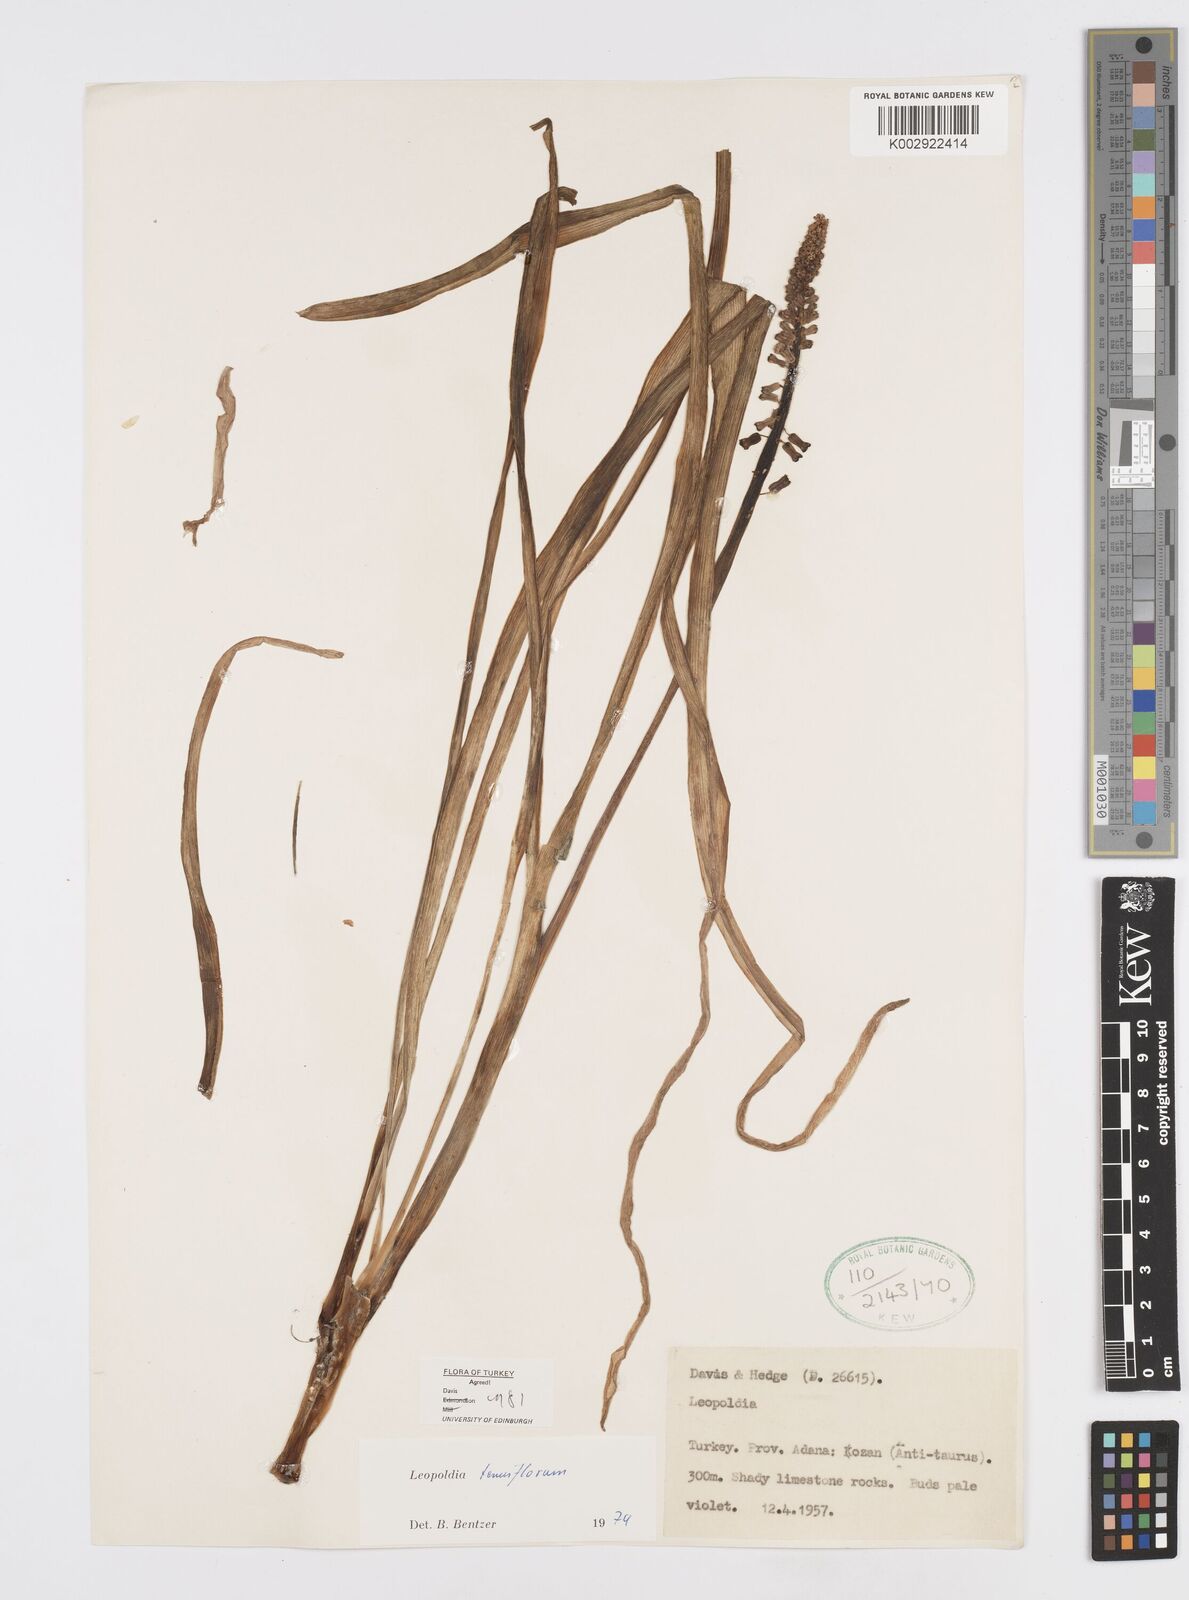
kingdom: Plantae
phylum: Tracheophyta
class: Liliopsida
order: Asparagales
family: Asparagaceae
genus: Muscari
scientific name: Muscari tenuiflorum
